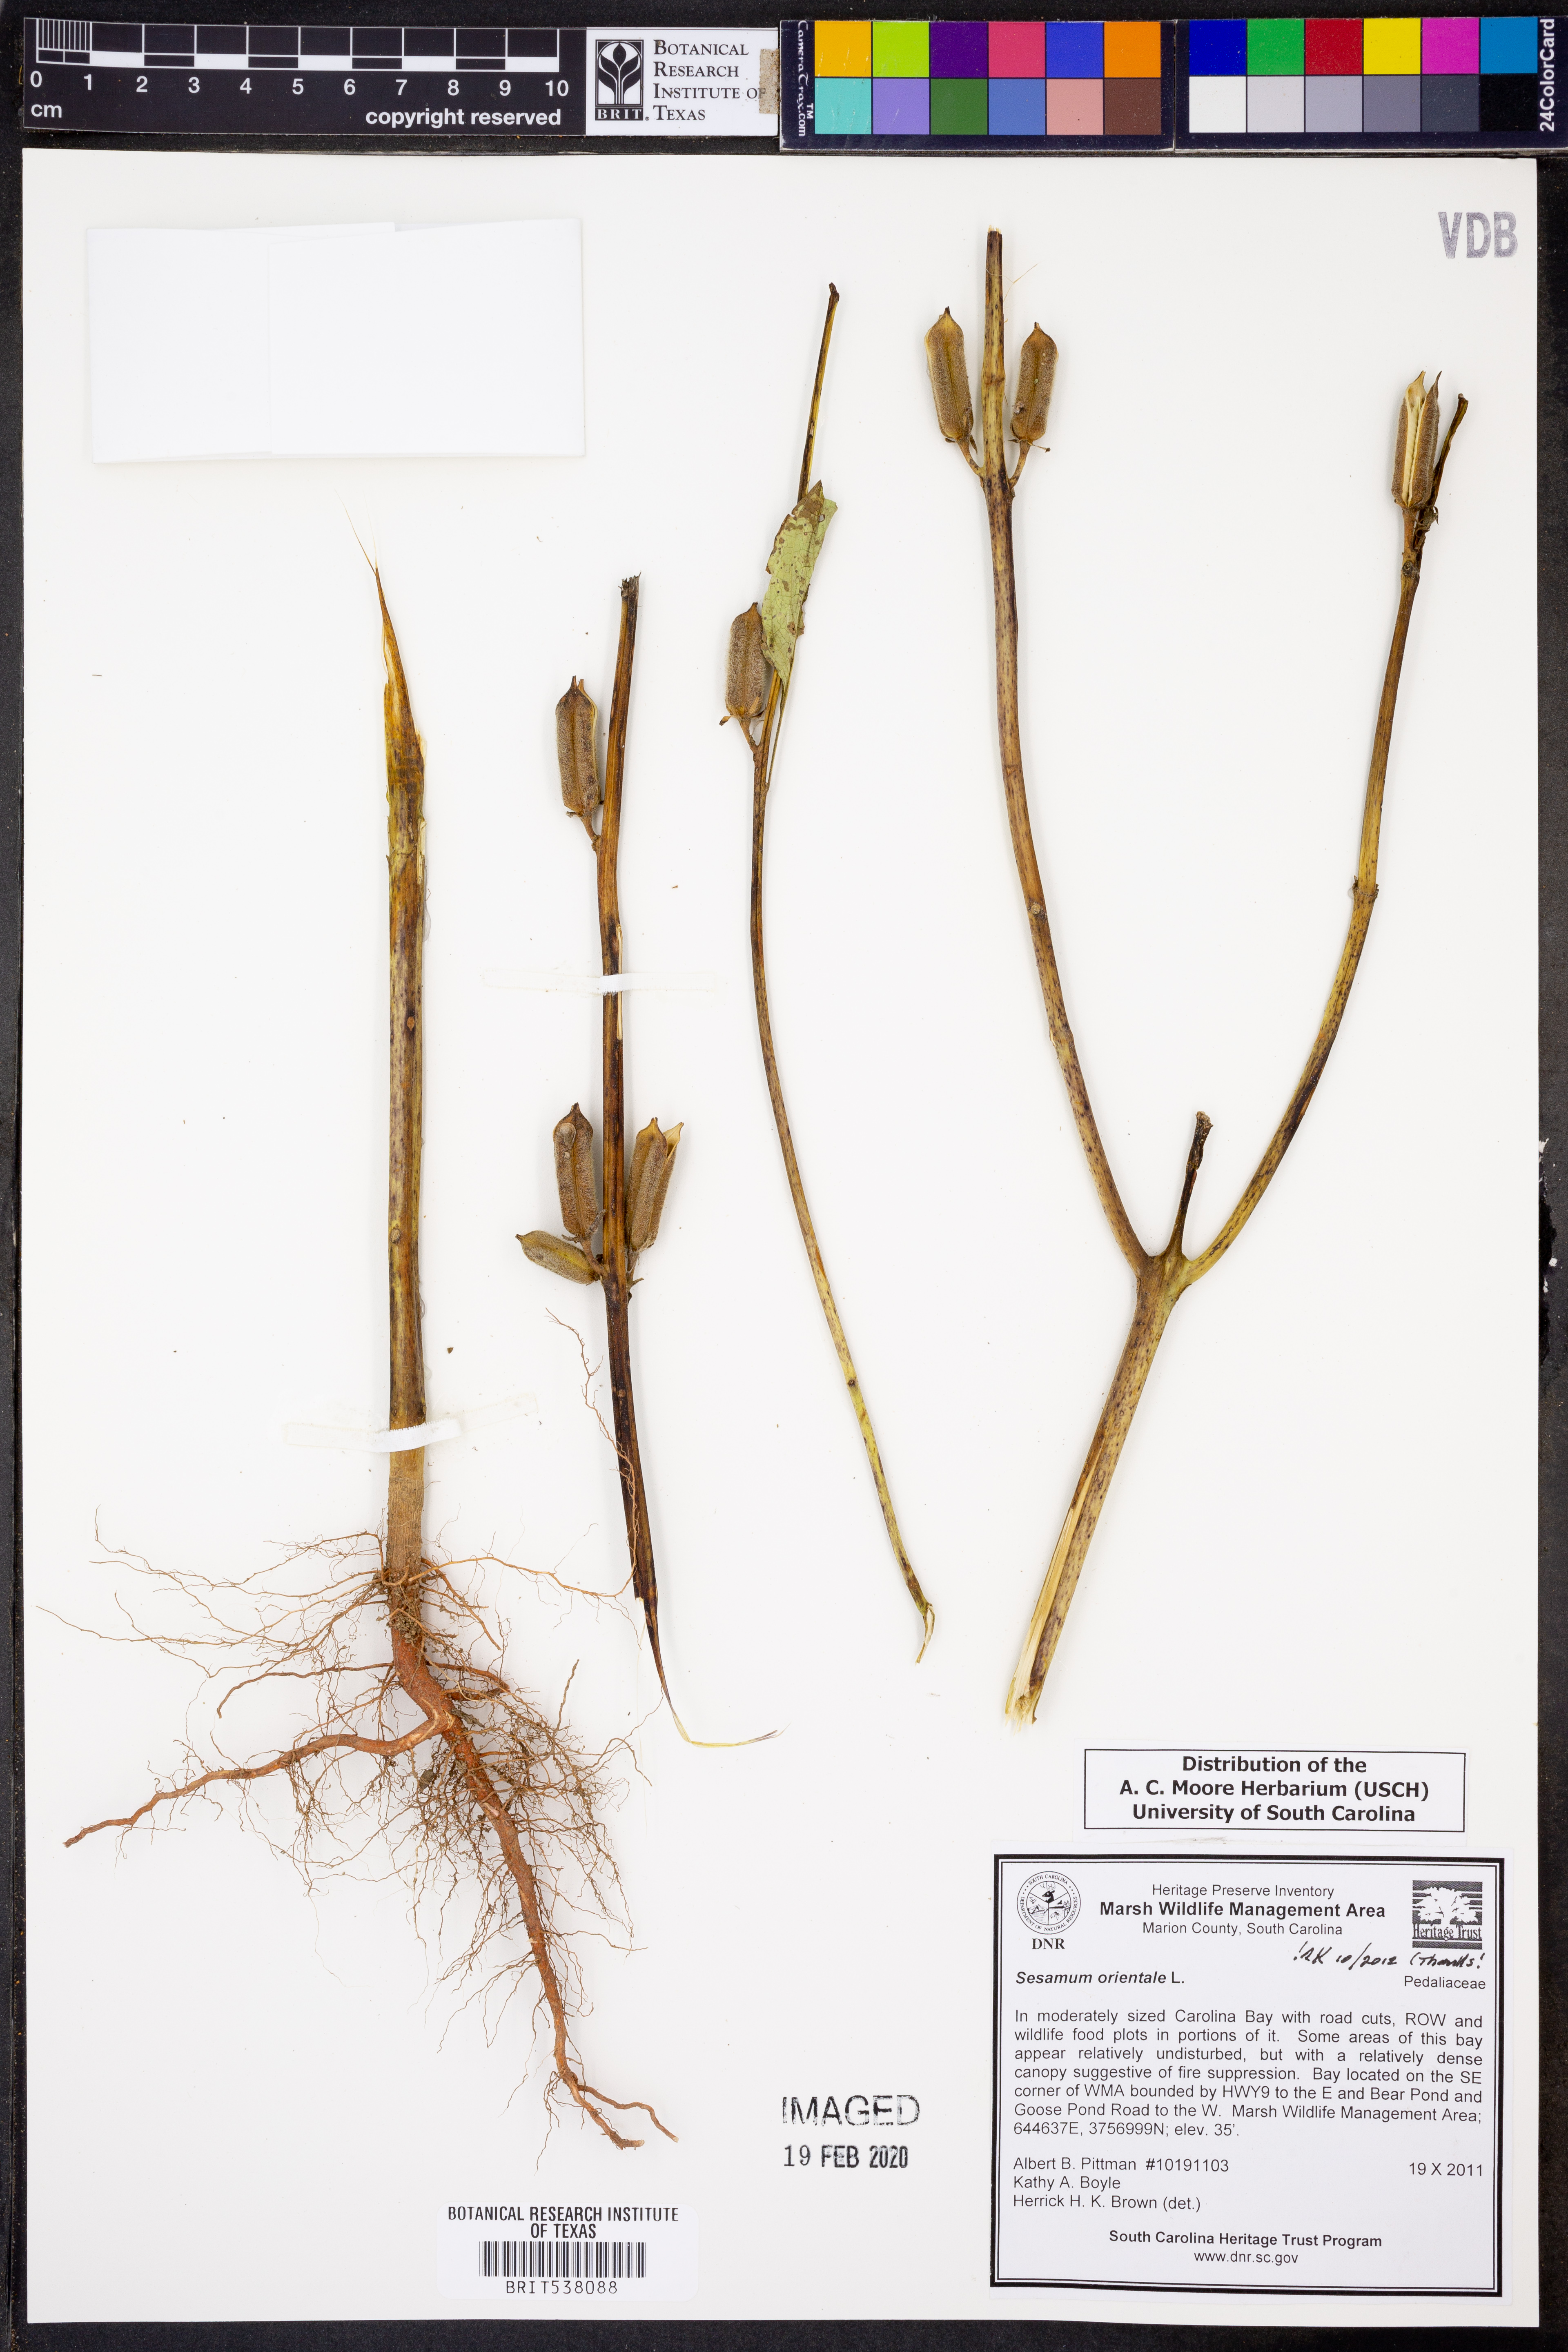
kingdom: Plantae
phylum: Tracheophyta
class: Magnoliopsida
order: Lamiales
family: Pedaliaceae
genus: Sesamum
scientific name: Sesamum orientale
